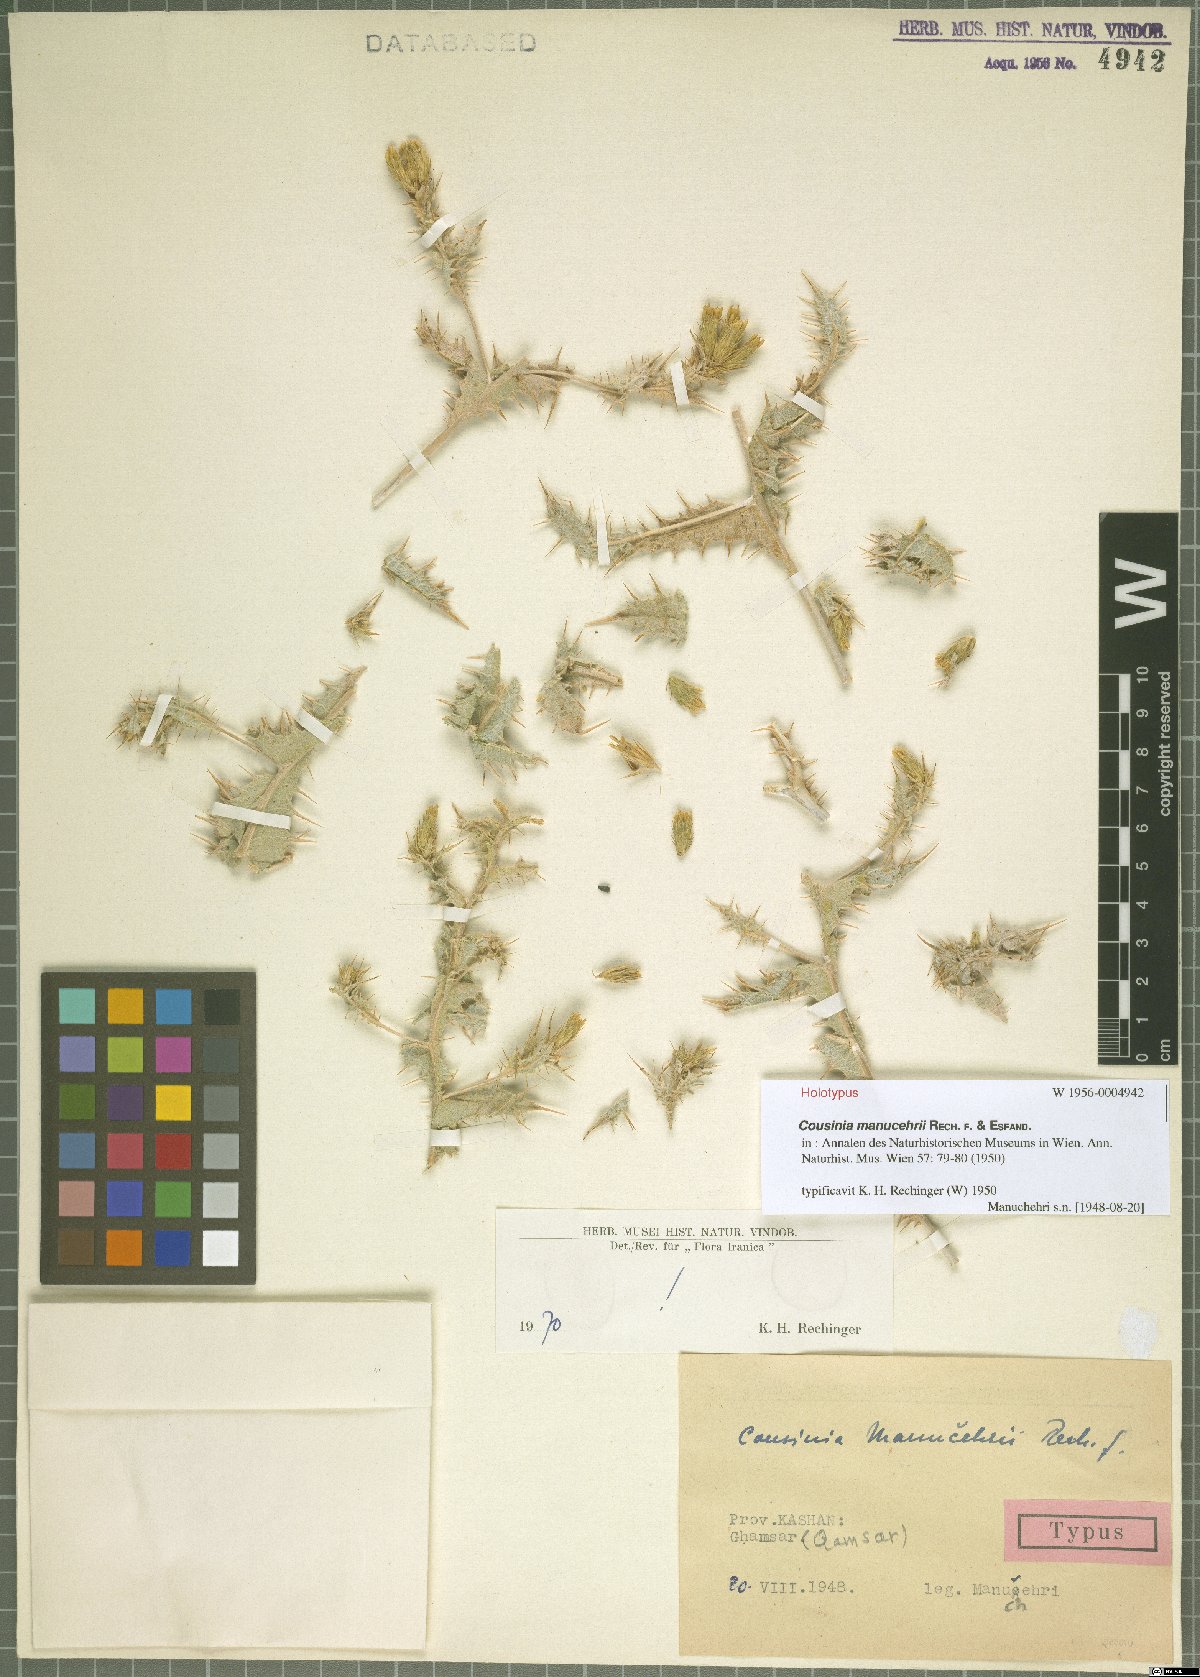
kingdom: Plantae
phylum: Tracheophyta
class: Magnoliopsida
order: Asterales
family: Asteraceae
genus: Cousinia
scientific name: Cousinia manucehrii
